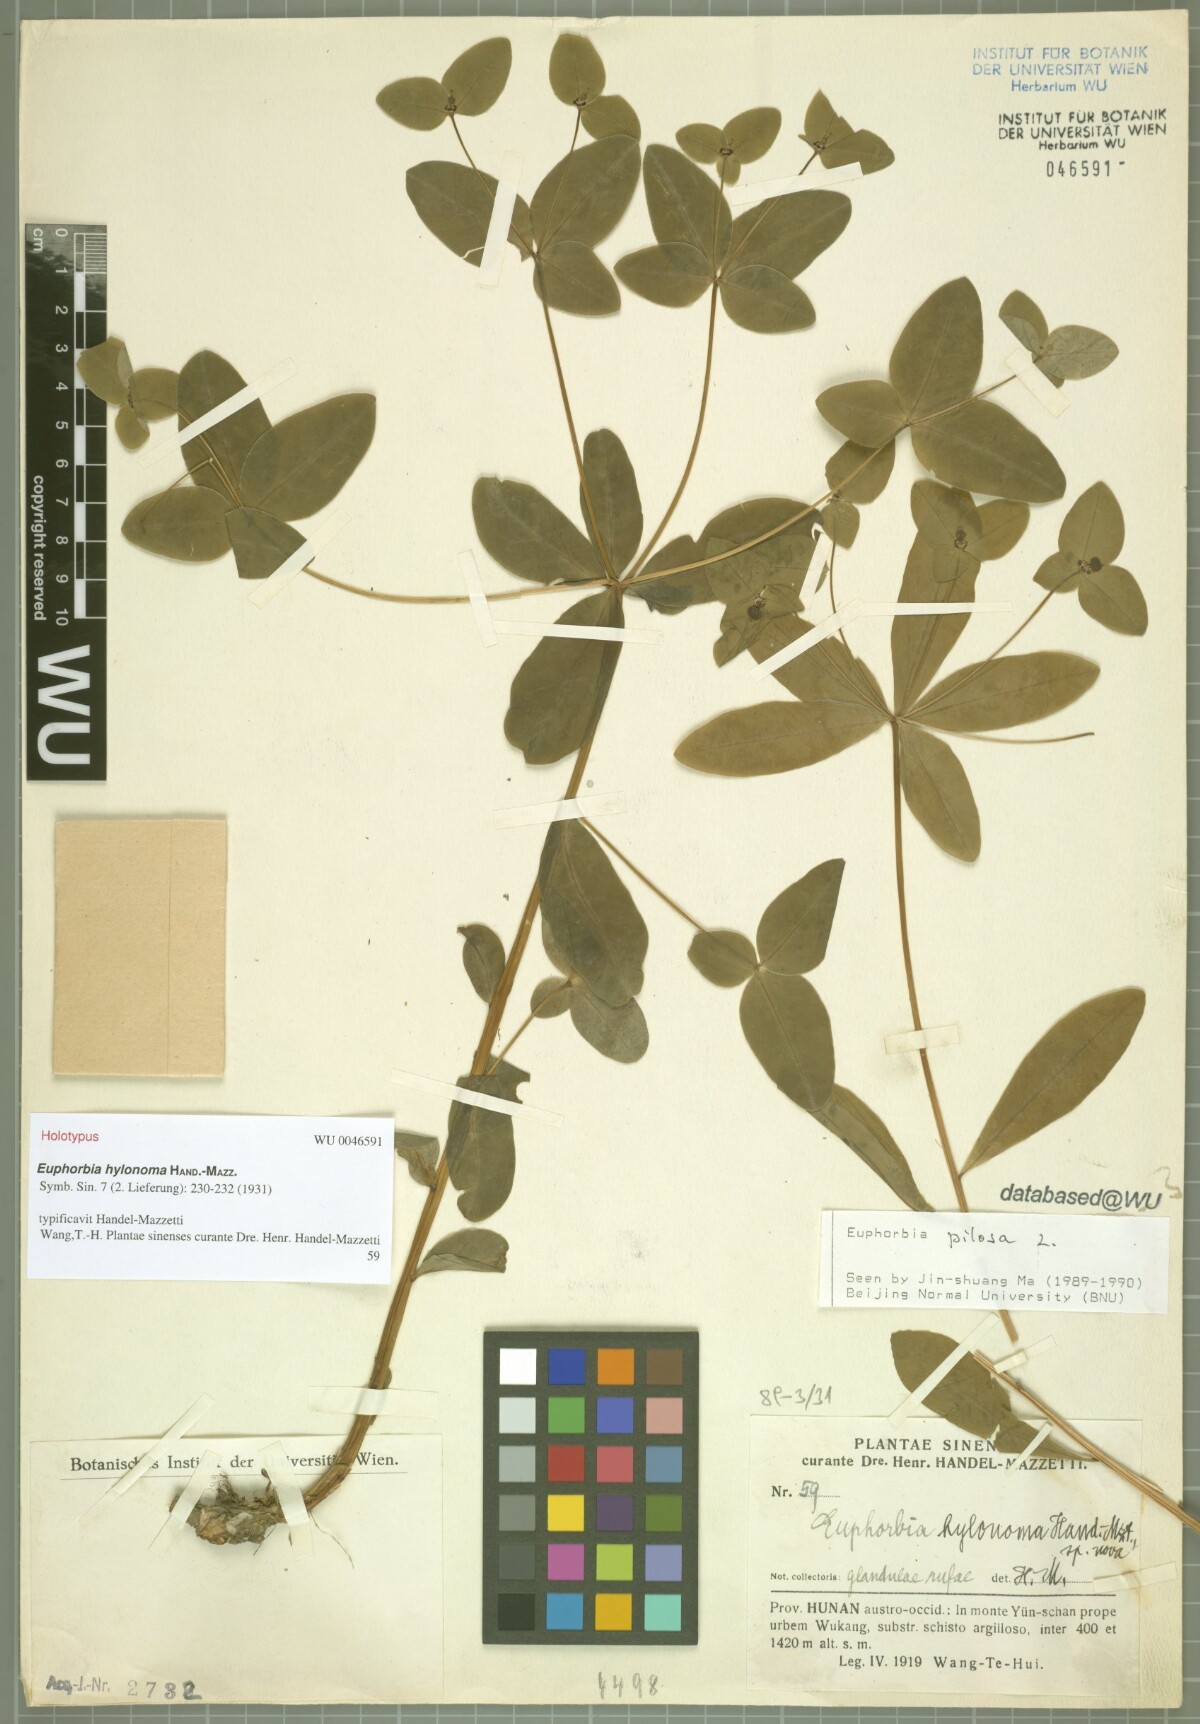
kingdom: Plantae
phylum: Tracheophyta
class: Magnoliopsida
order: Malpighiales
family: Euphorbiaceae
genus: Euphorbia
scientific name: Euphorbia hylonoma
